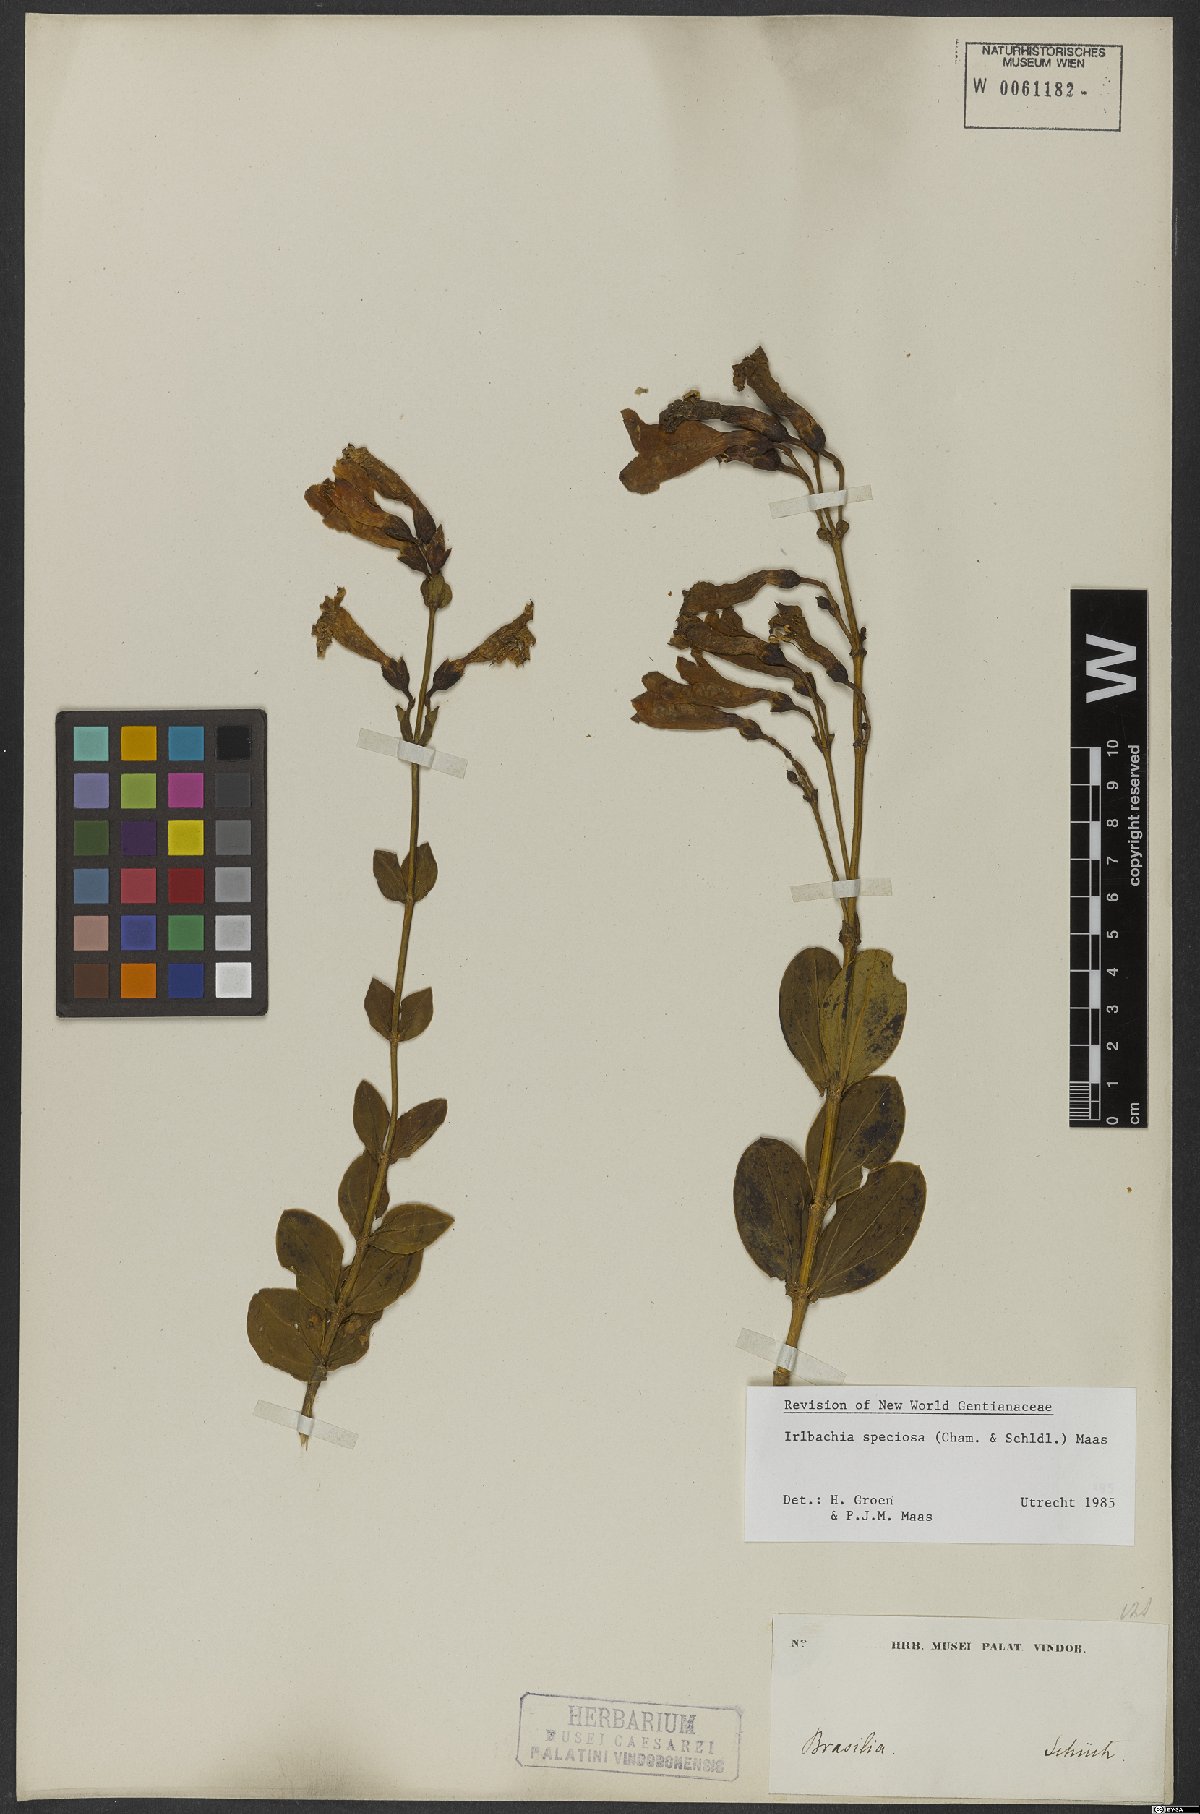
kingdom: Plantae
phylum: Tracheophyta
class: Magnoliopsida
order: Gentianales
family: Gentianaceae
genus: Calolisianthus
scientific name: Calolisianthus speciosus
